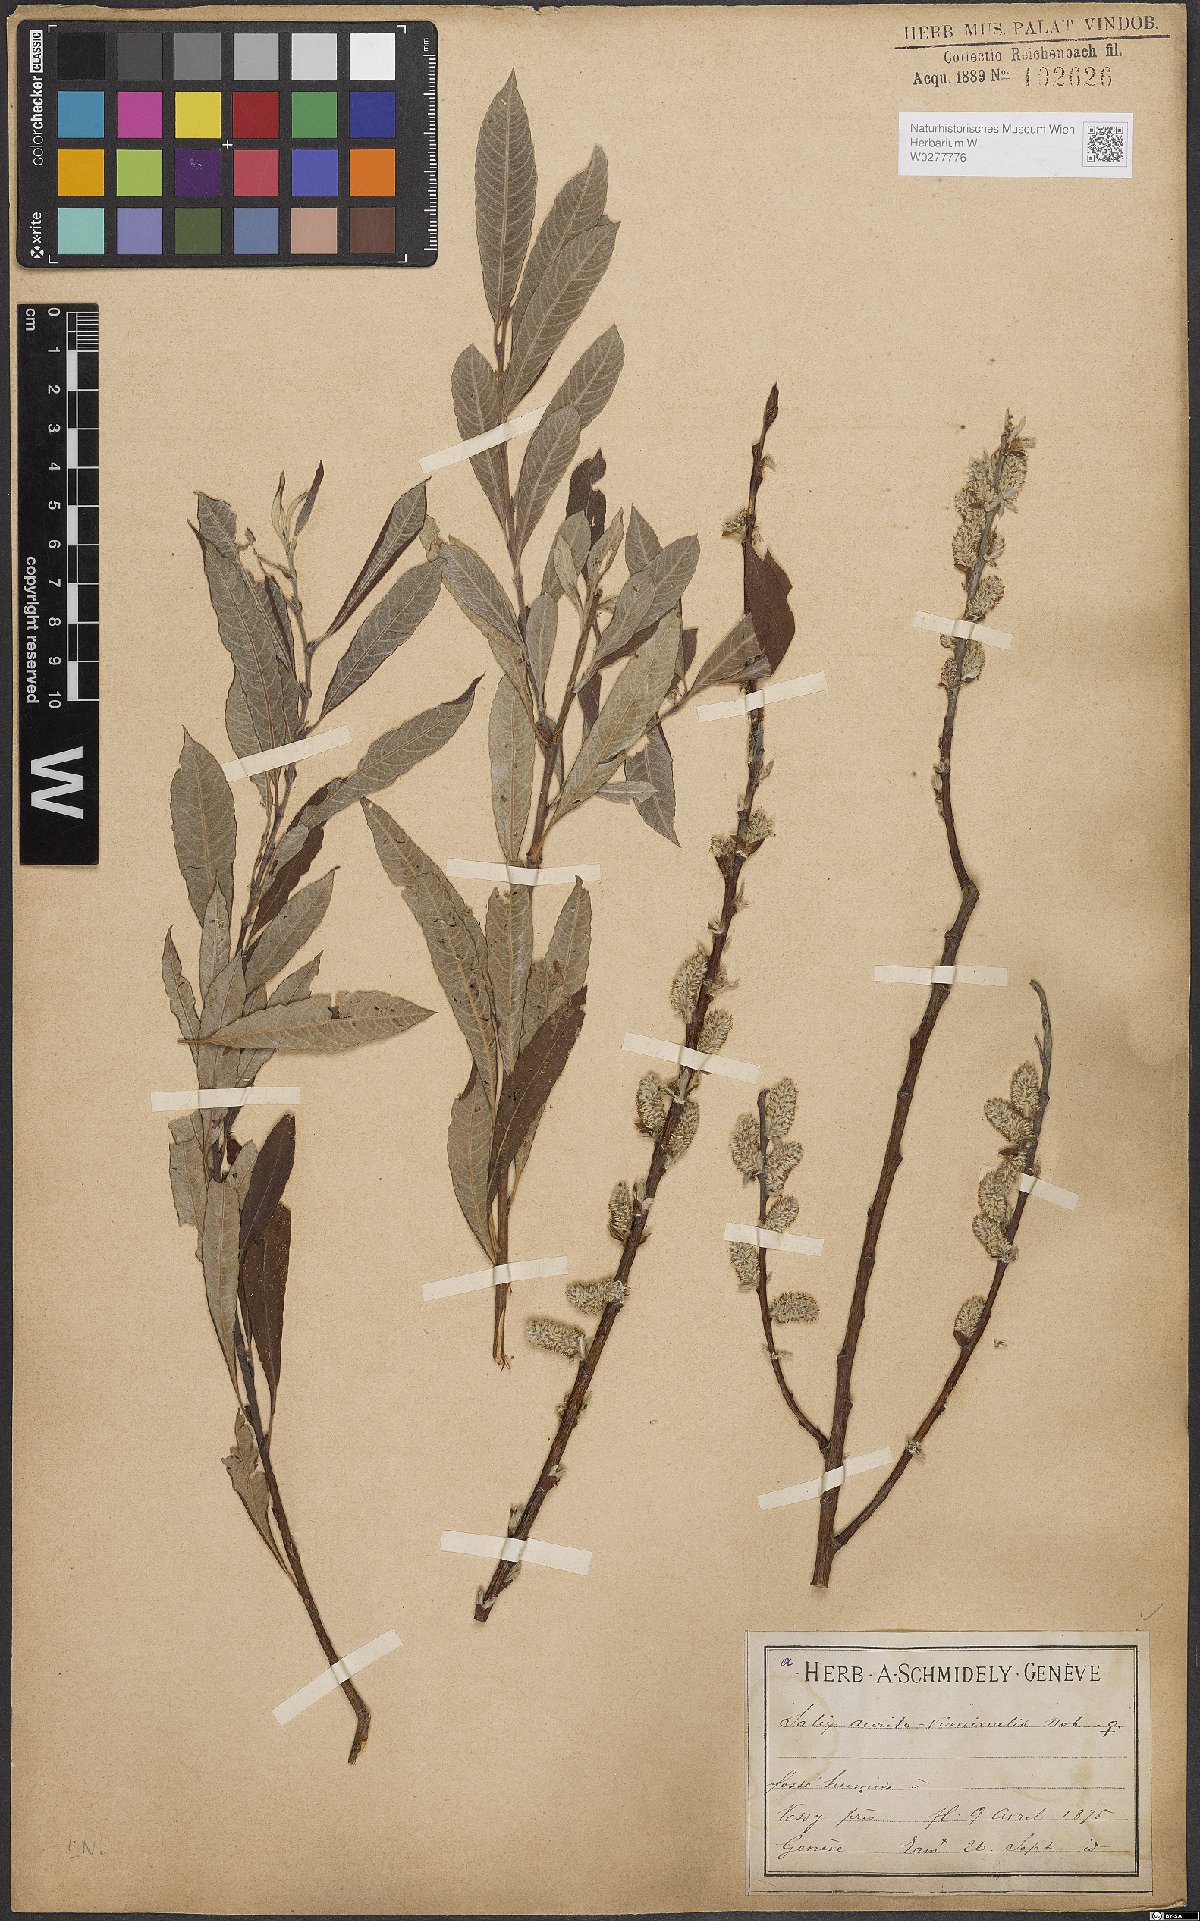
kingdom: Plantae
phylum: Tracheophyta
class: Magnoliopsida
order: Malpighiales
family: Salicaceae
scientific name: Salicaceae
